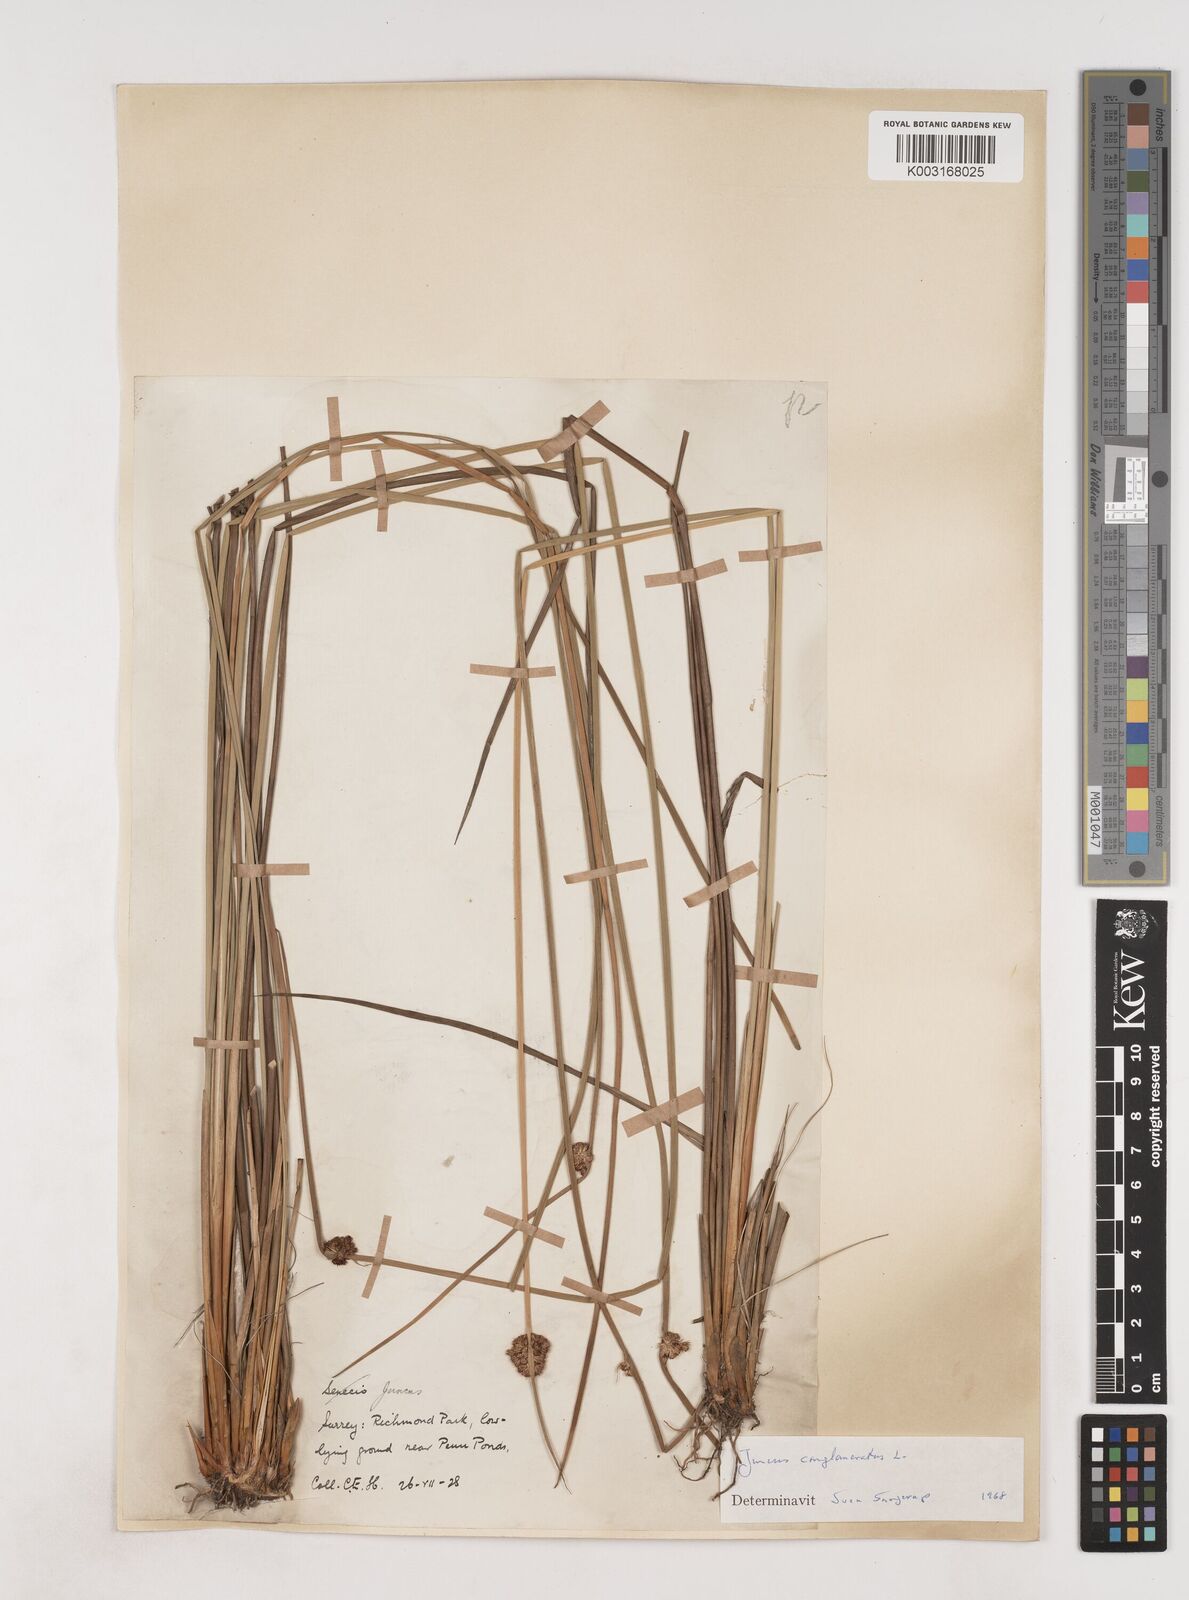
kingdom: Plantae
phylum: Tracheophyta
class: Liliopsida
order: Poales
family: Juncaceae
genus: Juncus
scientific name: Juncus conglomeratus
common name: Compact rush
